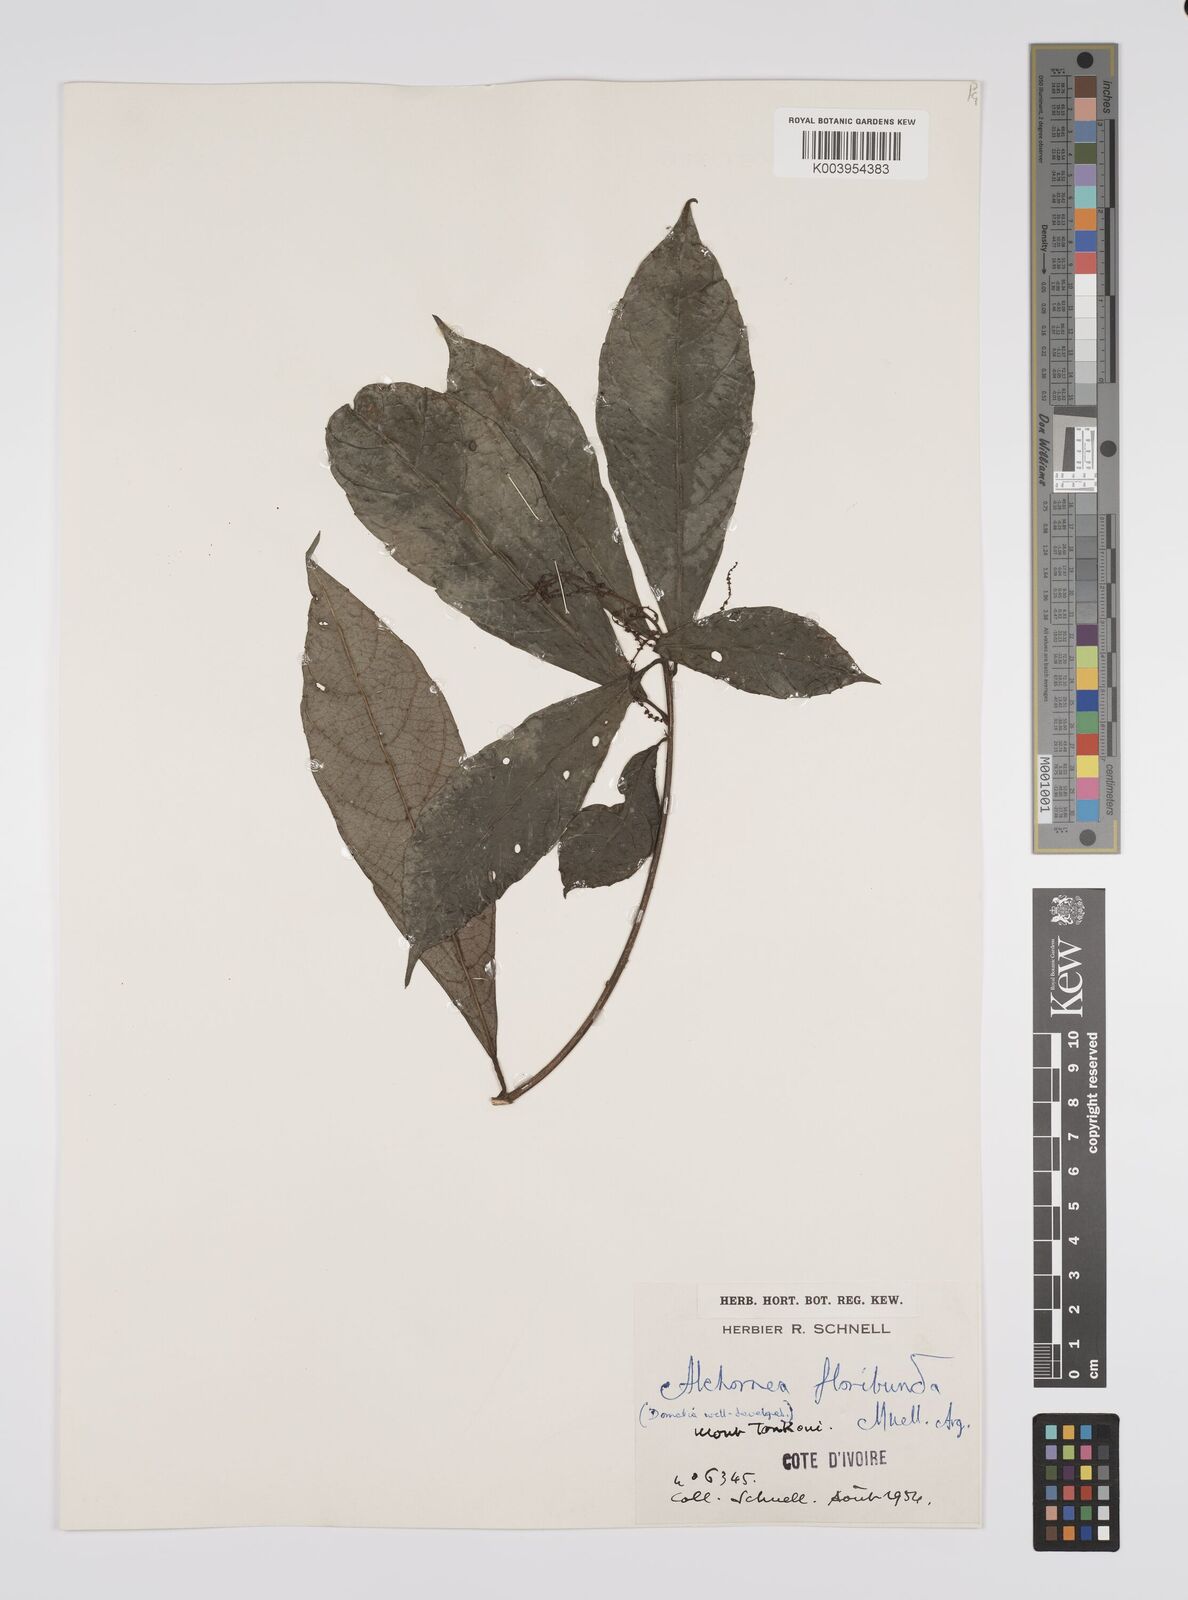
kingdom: Plantae
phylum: Tracheophyta
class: Magnoliopsida
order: Malpighiales
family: Euphorbiaceae
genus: Alchornea
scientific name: Alchornea floribunda
